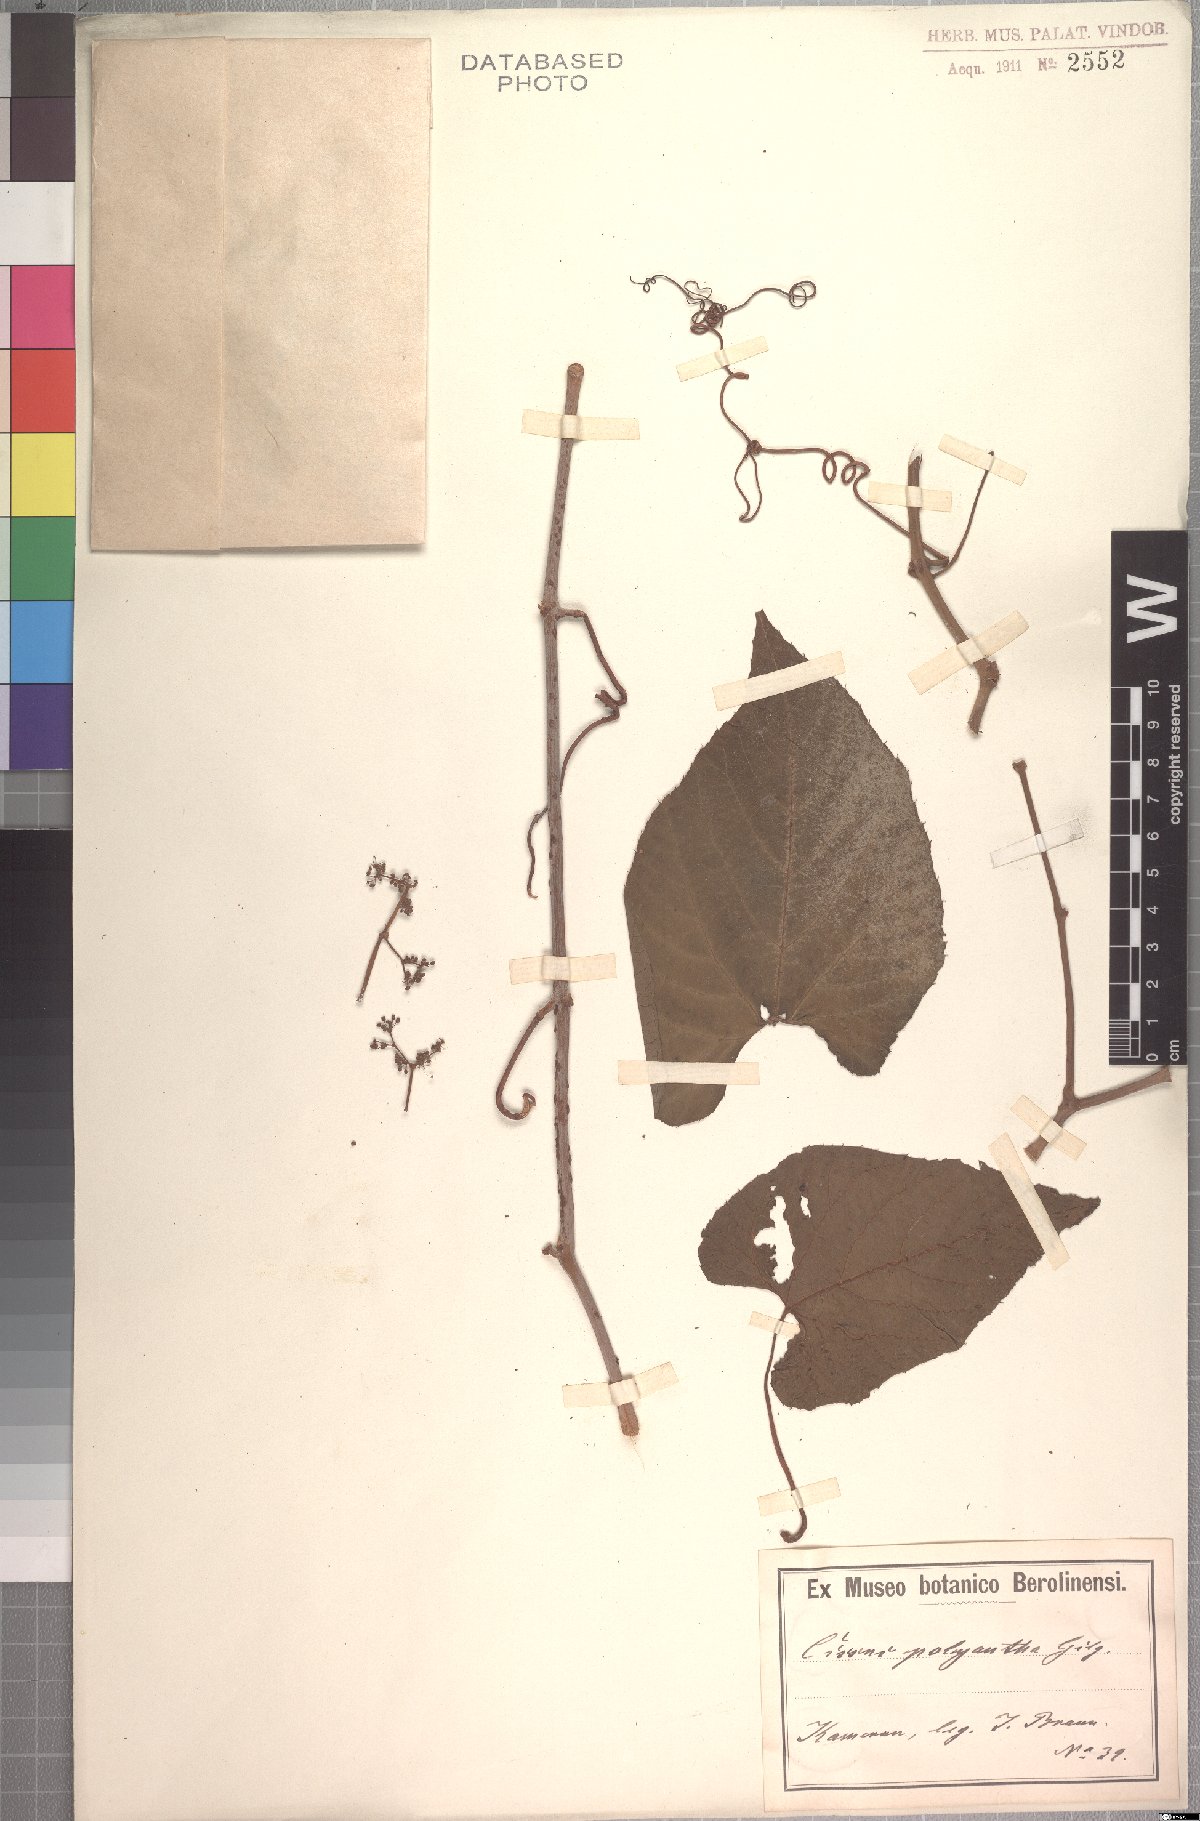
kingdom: Plantae
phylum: Tracheophyta
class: Magnoliopsida
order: Vitales
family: Vitaceae
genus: Cissus
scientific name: Cissus polyantha
